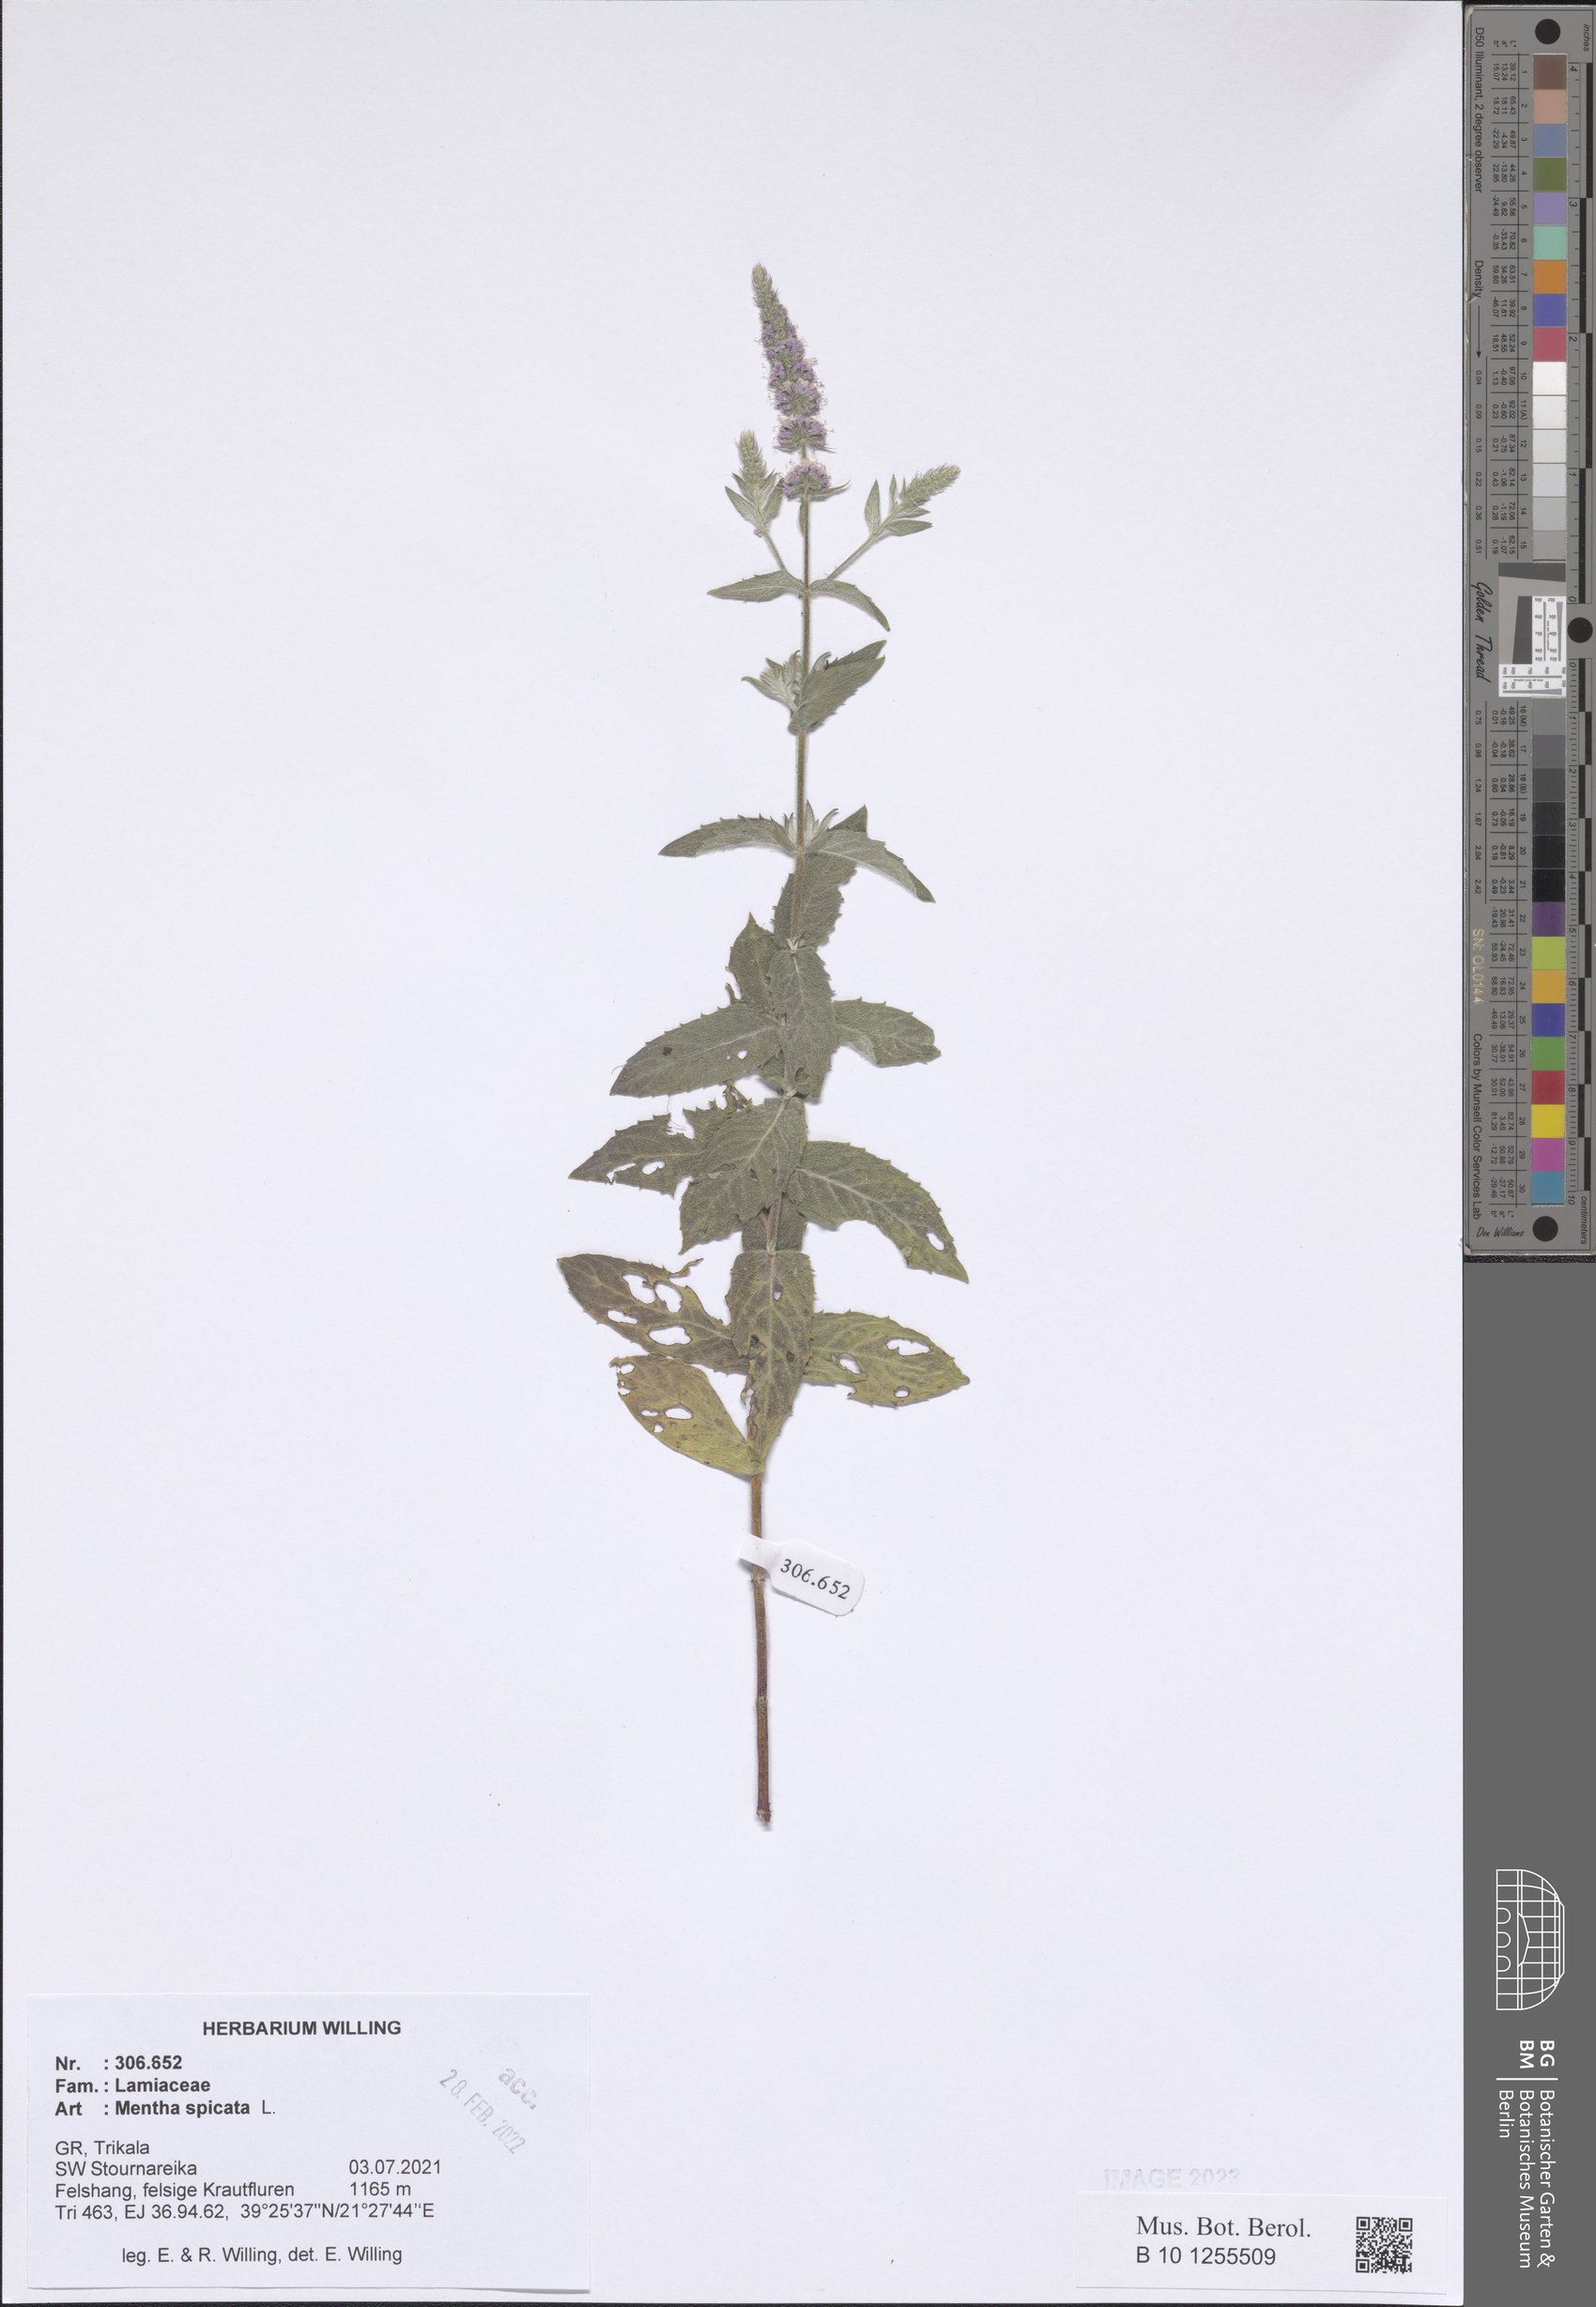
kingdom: Plantae
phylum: Tracheophyta
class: Magnoliopsida
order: Lamiales
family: Lamiaceae
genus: Mentha
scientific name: Mentha spicata
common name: Spearmint
